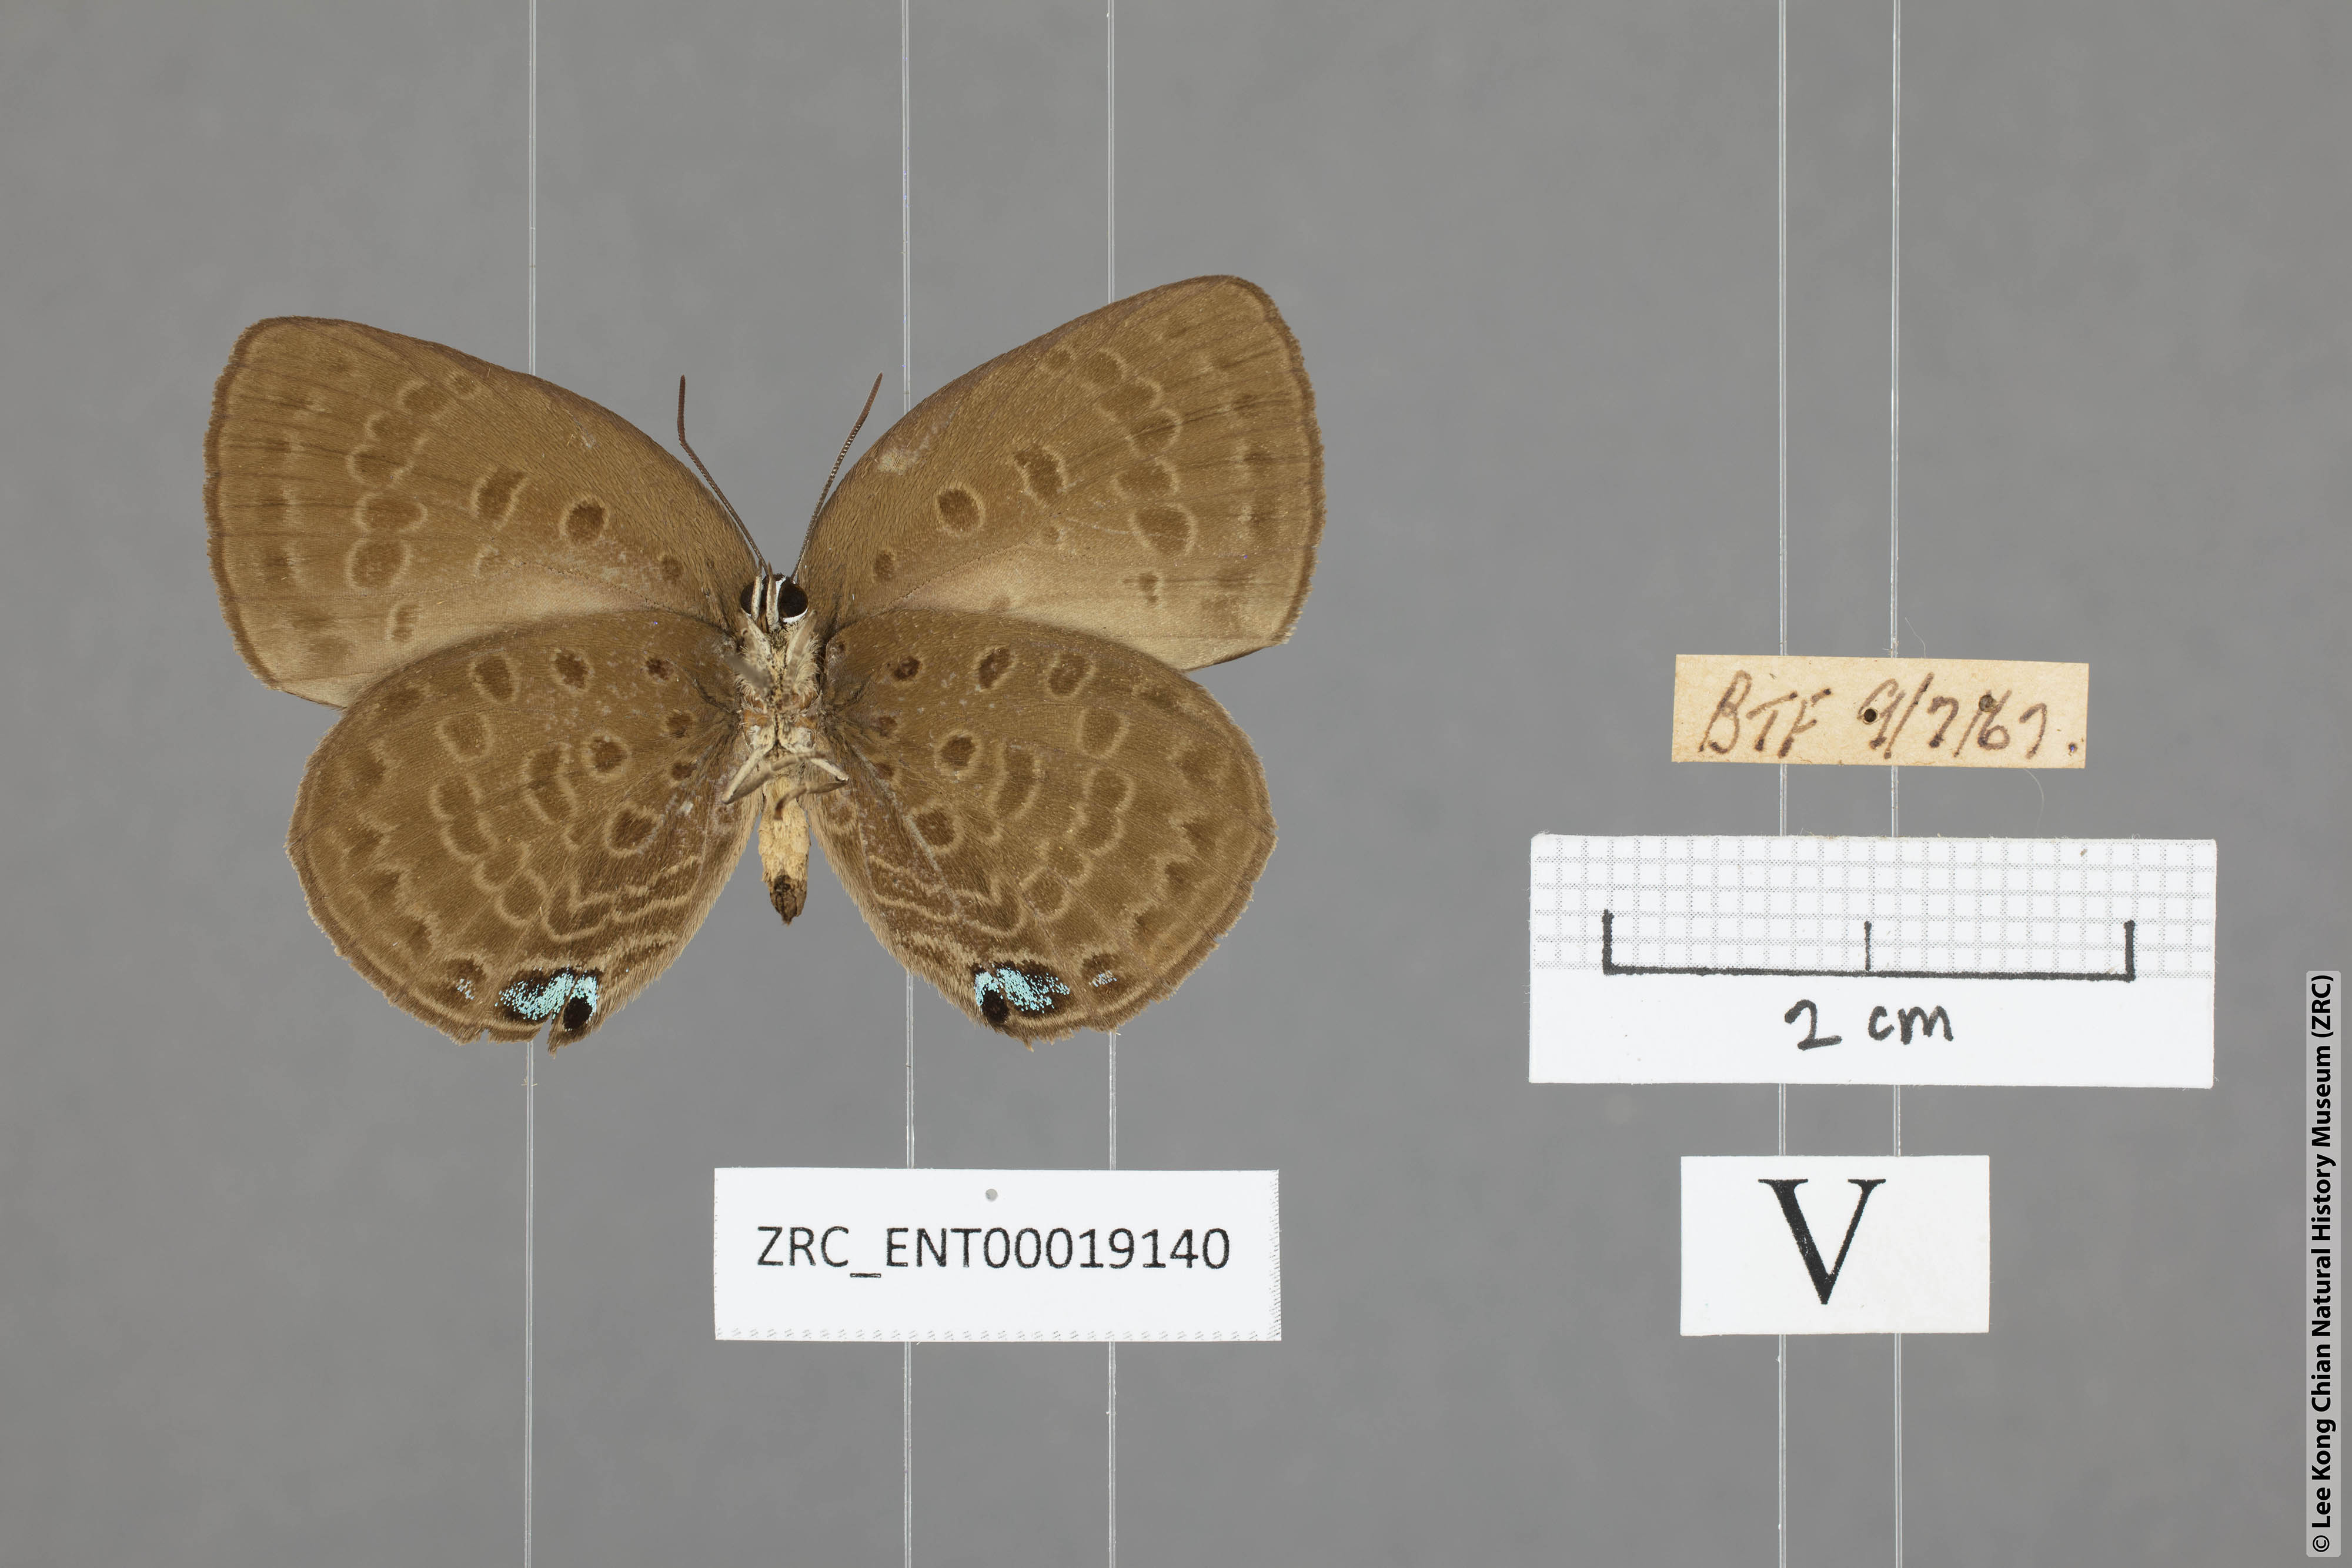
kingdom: Animalia
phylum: Arthropoda
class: Insecta
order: Lepidoptera
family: Lycaenidae
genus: Arhopala
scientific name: Arhopala amphimuta
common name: Broad yellow oakblue
